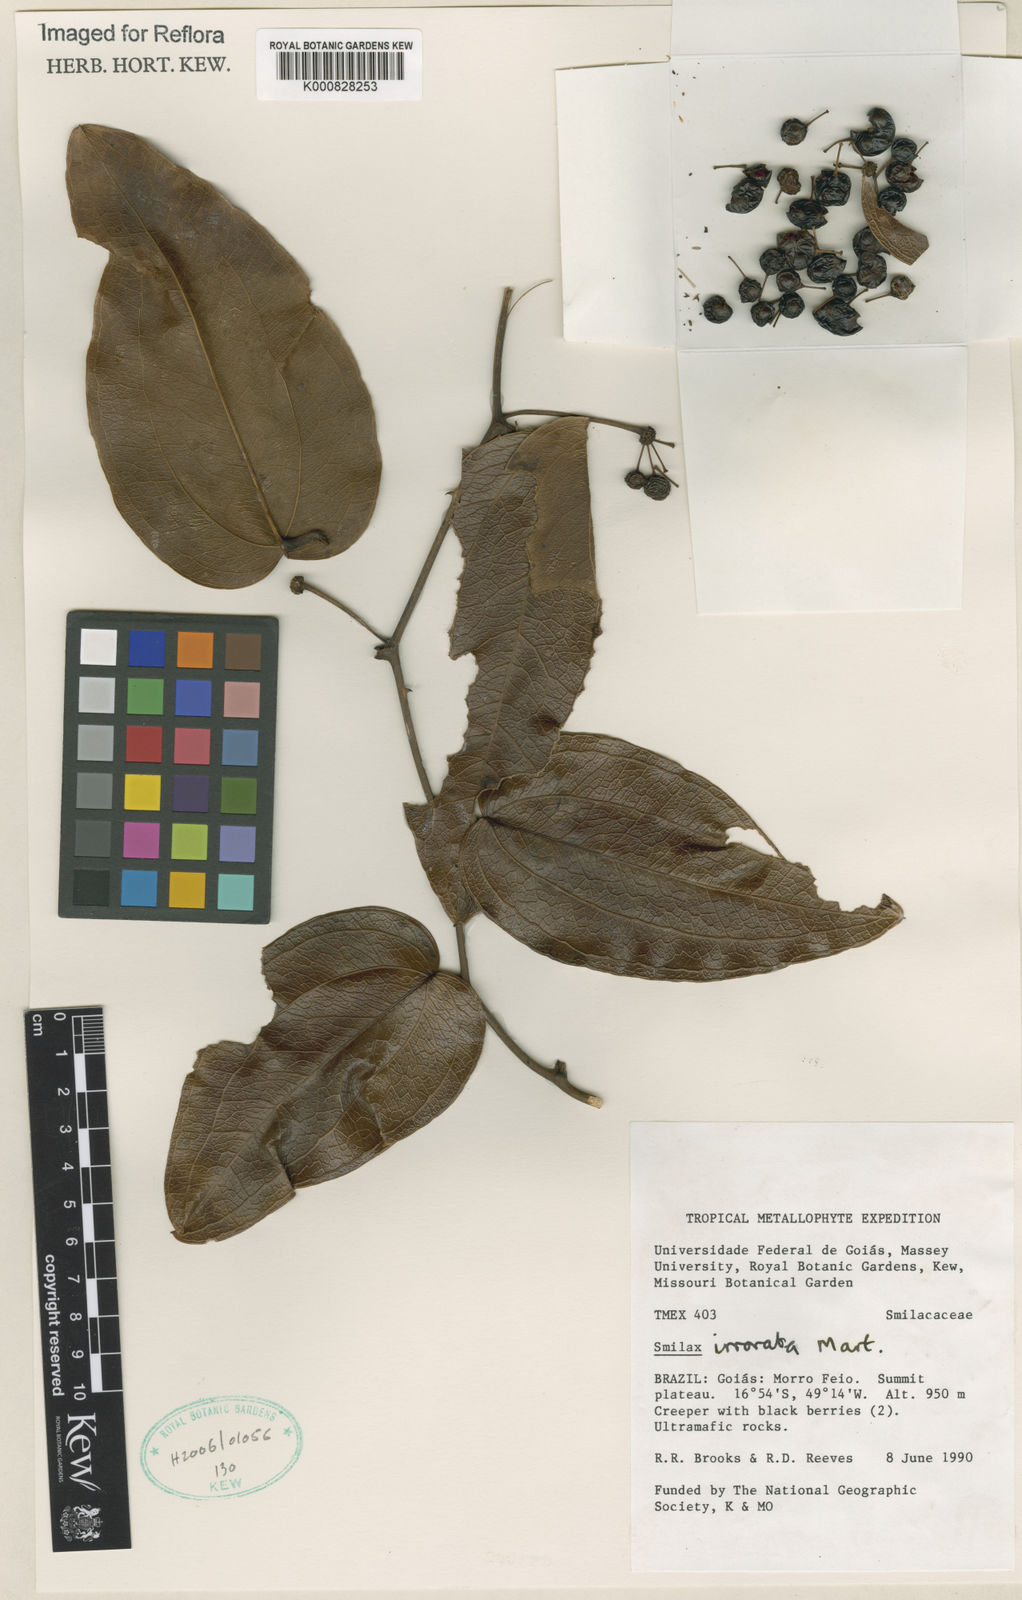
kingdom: Plantae
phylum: Tracheophyta
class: Liliopsida
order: Liliales
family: Smilacaceae
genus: Smilax
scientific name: Smilax irrorata
